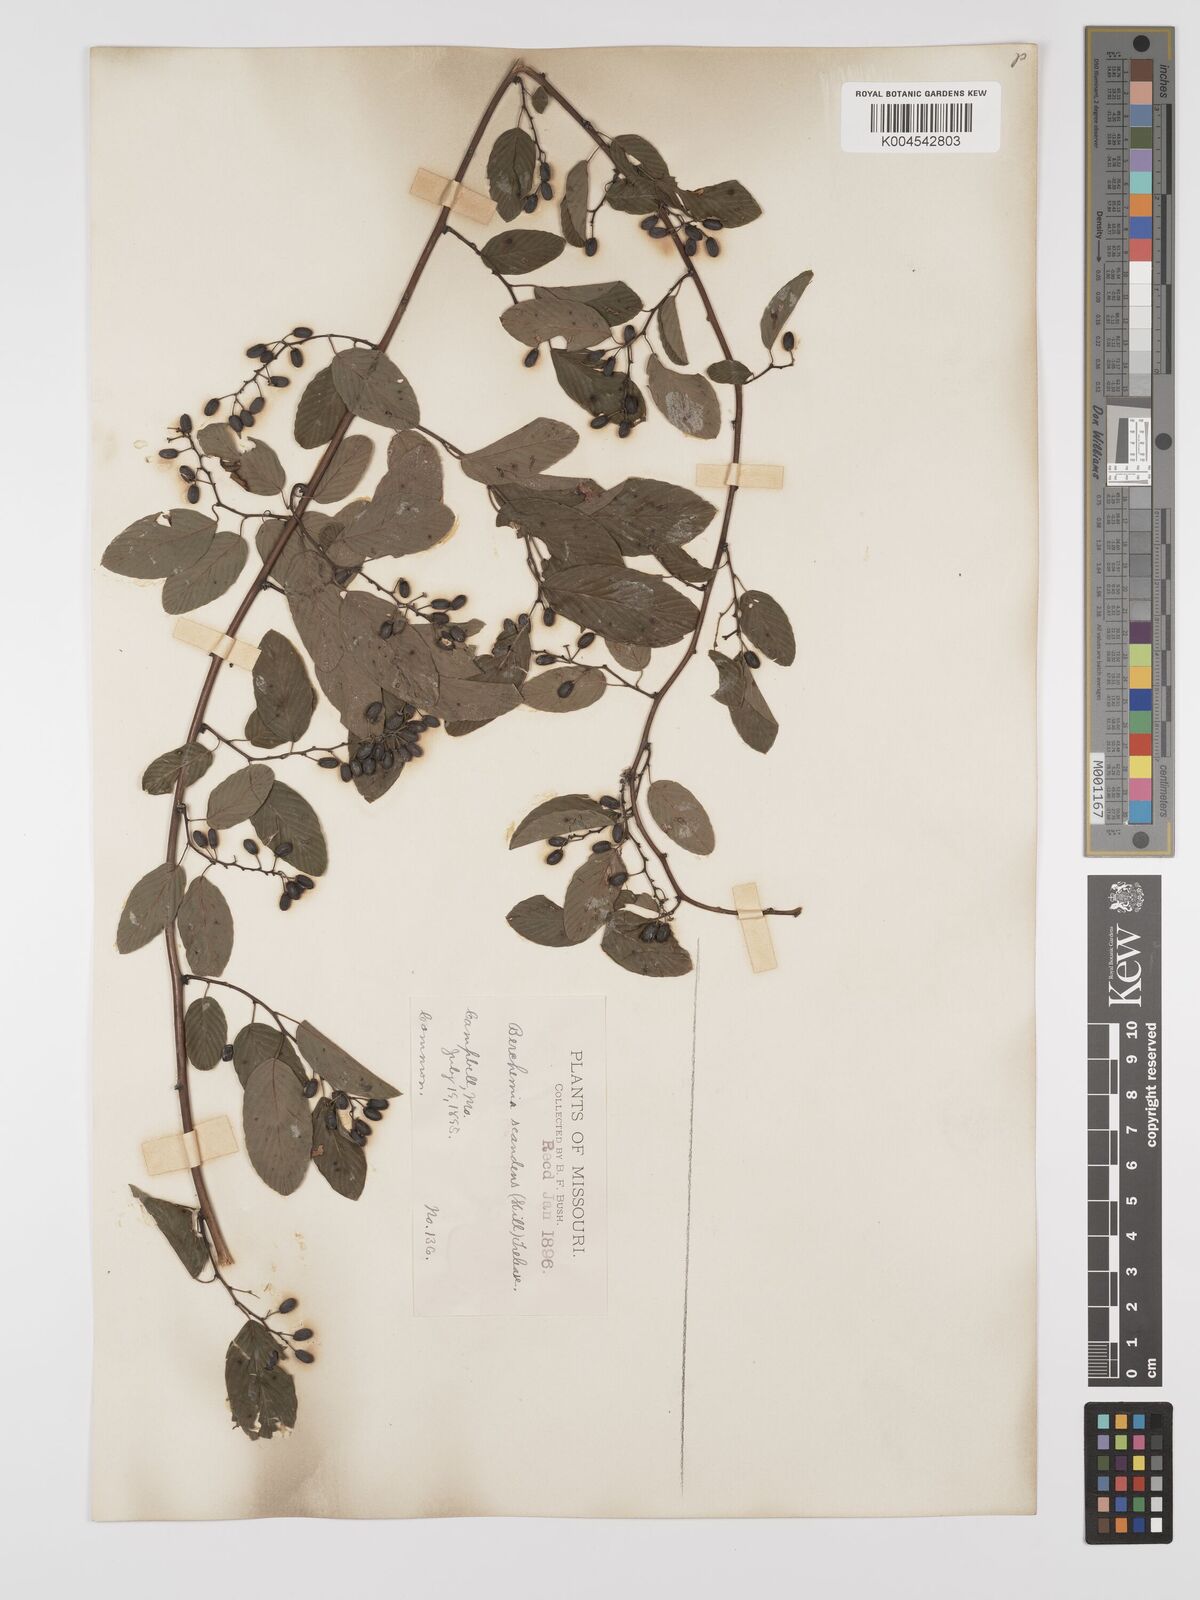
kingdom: Plantae
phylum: Tracheophyta
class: Magnoliopsida
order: Rosales
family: Rhamnaceae
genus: Berchemia
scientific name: Berchemia scandens
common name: Supplejack
